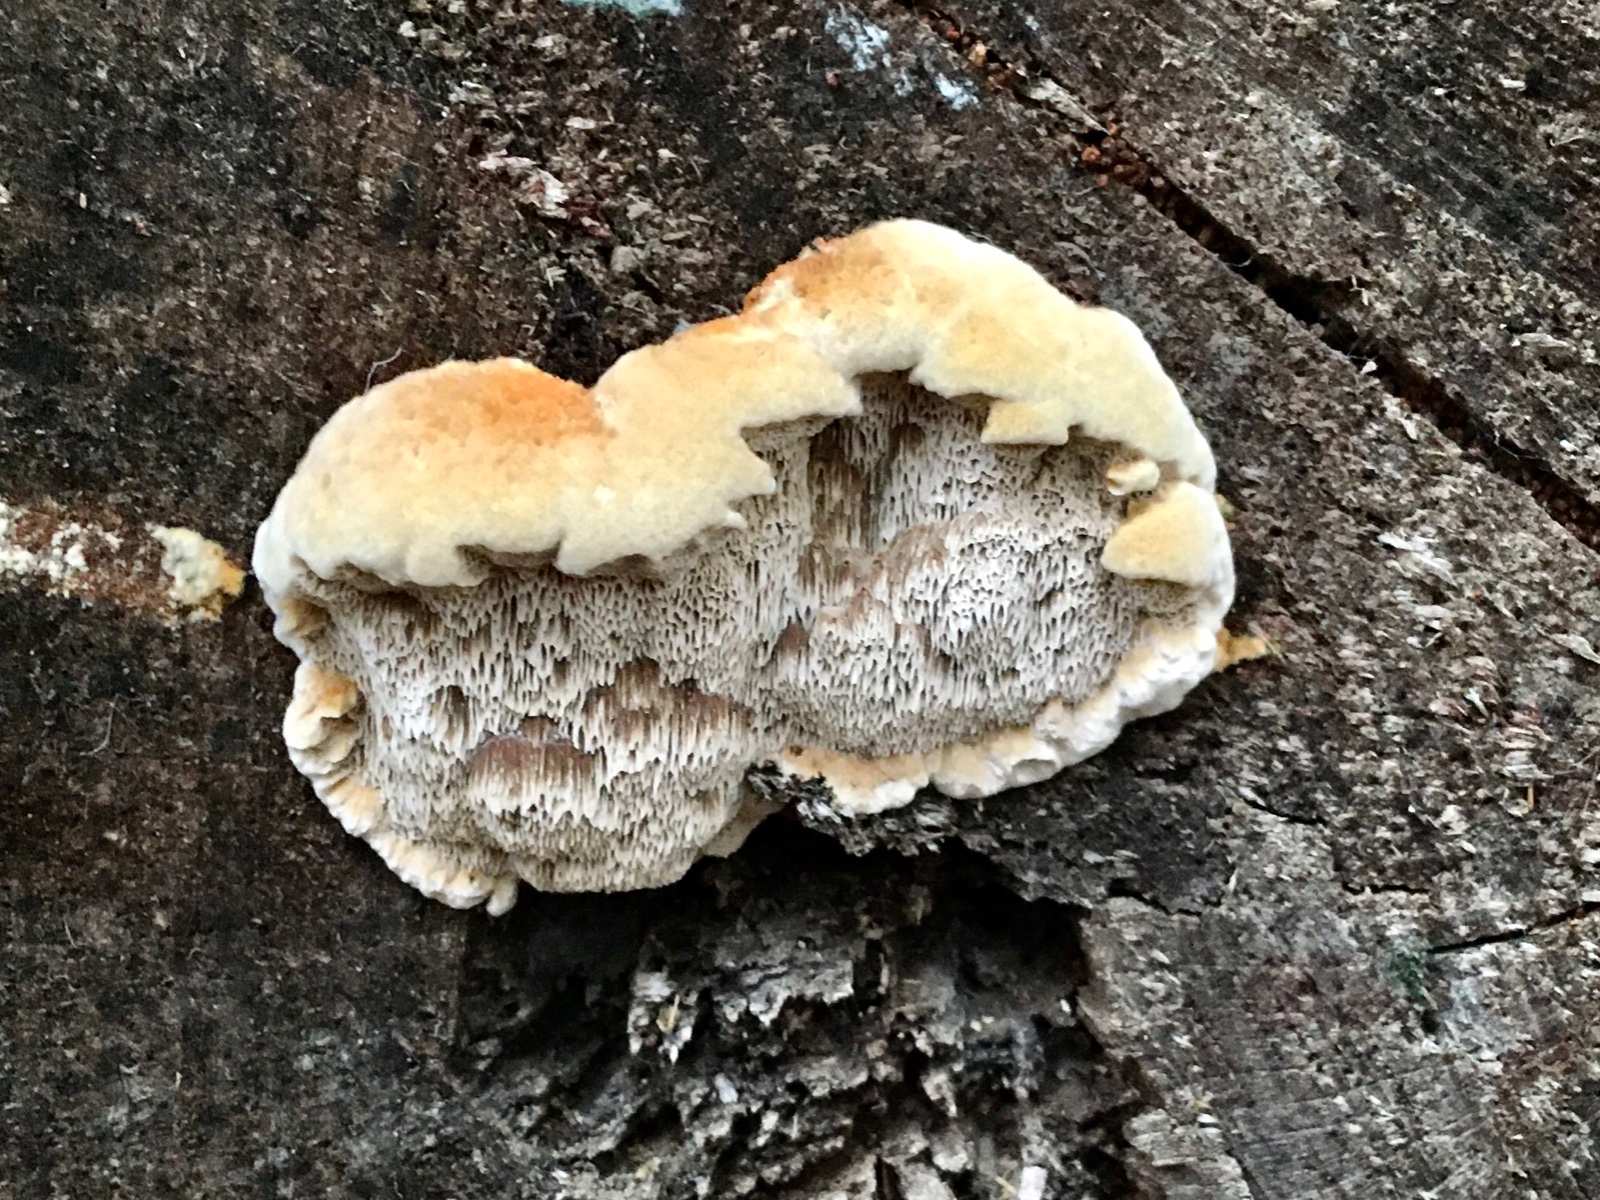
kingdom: Fungi
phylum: Basidiomycota
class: Agaricomycetes
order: Hymenochaetales
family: Hymenochaetaceae
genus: Mensularia
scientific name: Mensularia nodulosa
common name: bøge-spejlporesvamp
